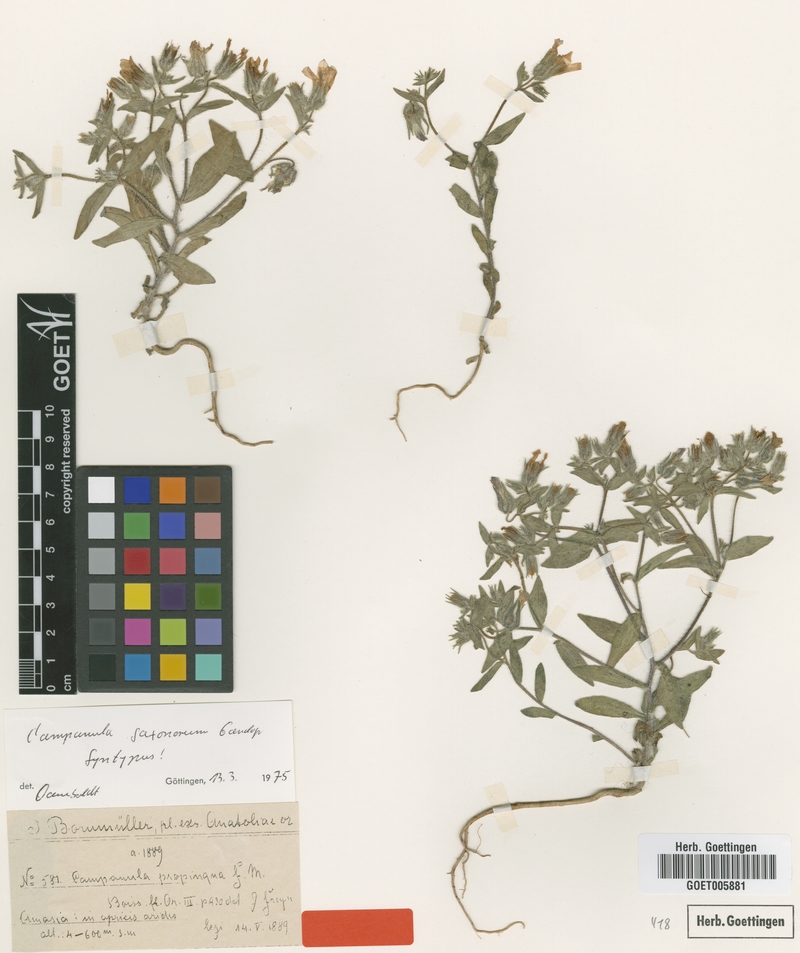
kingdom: Plantae
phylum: Tracheophyta
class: Magnoliopsida
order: Asterales
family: Campanulaceae
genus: Campanula
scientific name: Campanula saxonorum
